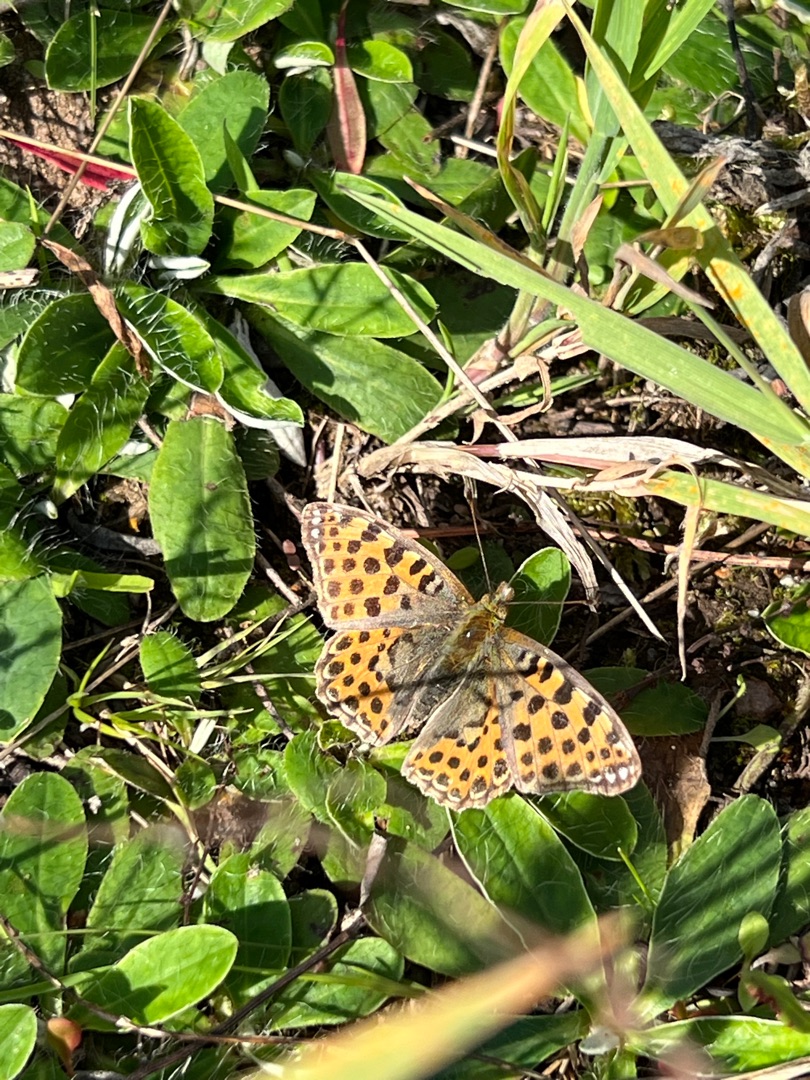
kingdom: Animalia
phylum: Arthropoda
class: Insecta
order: Lepidoptera
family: Nymphalidae
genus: Issoria
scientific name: Issoria lathonia
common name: Storplettet perlemorsommerfugl
